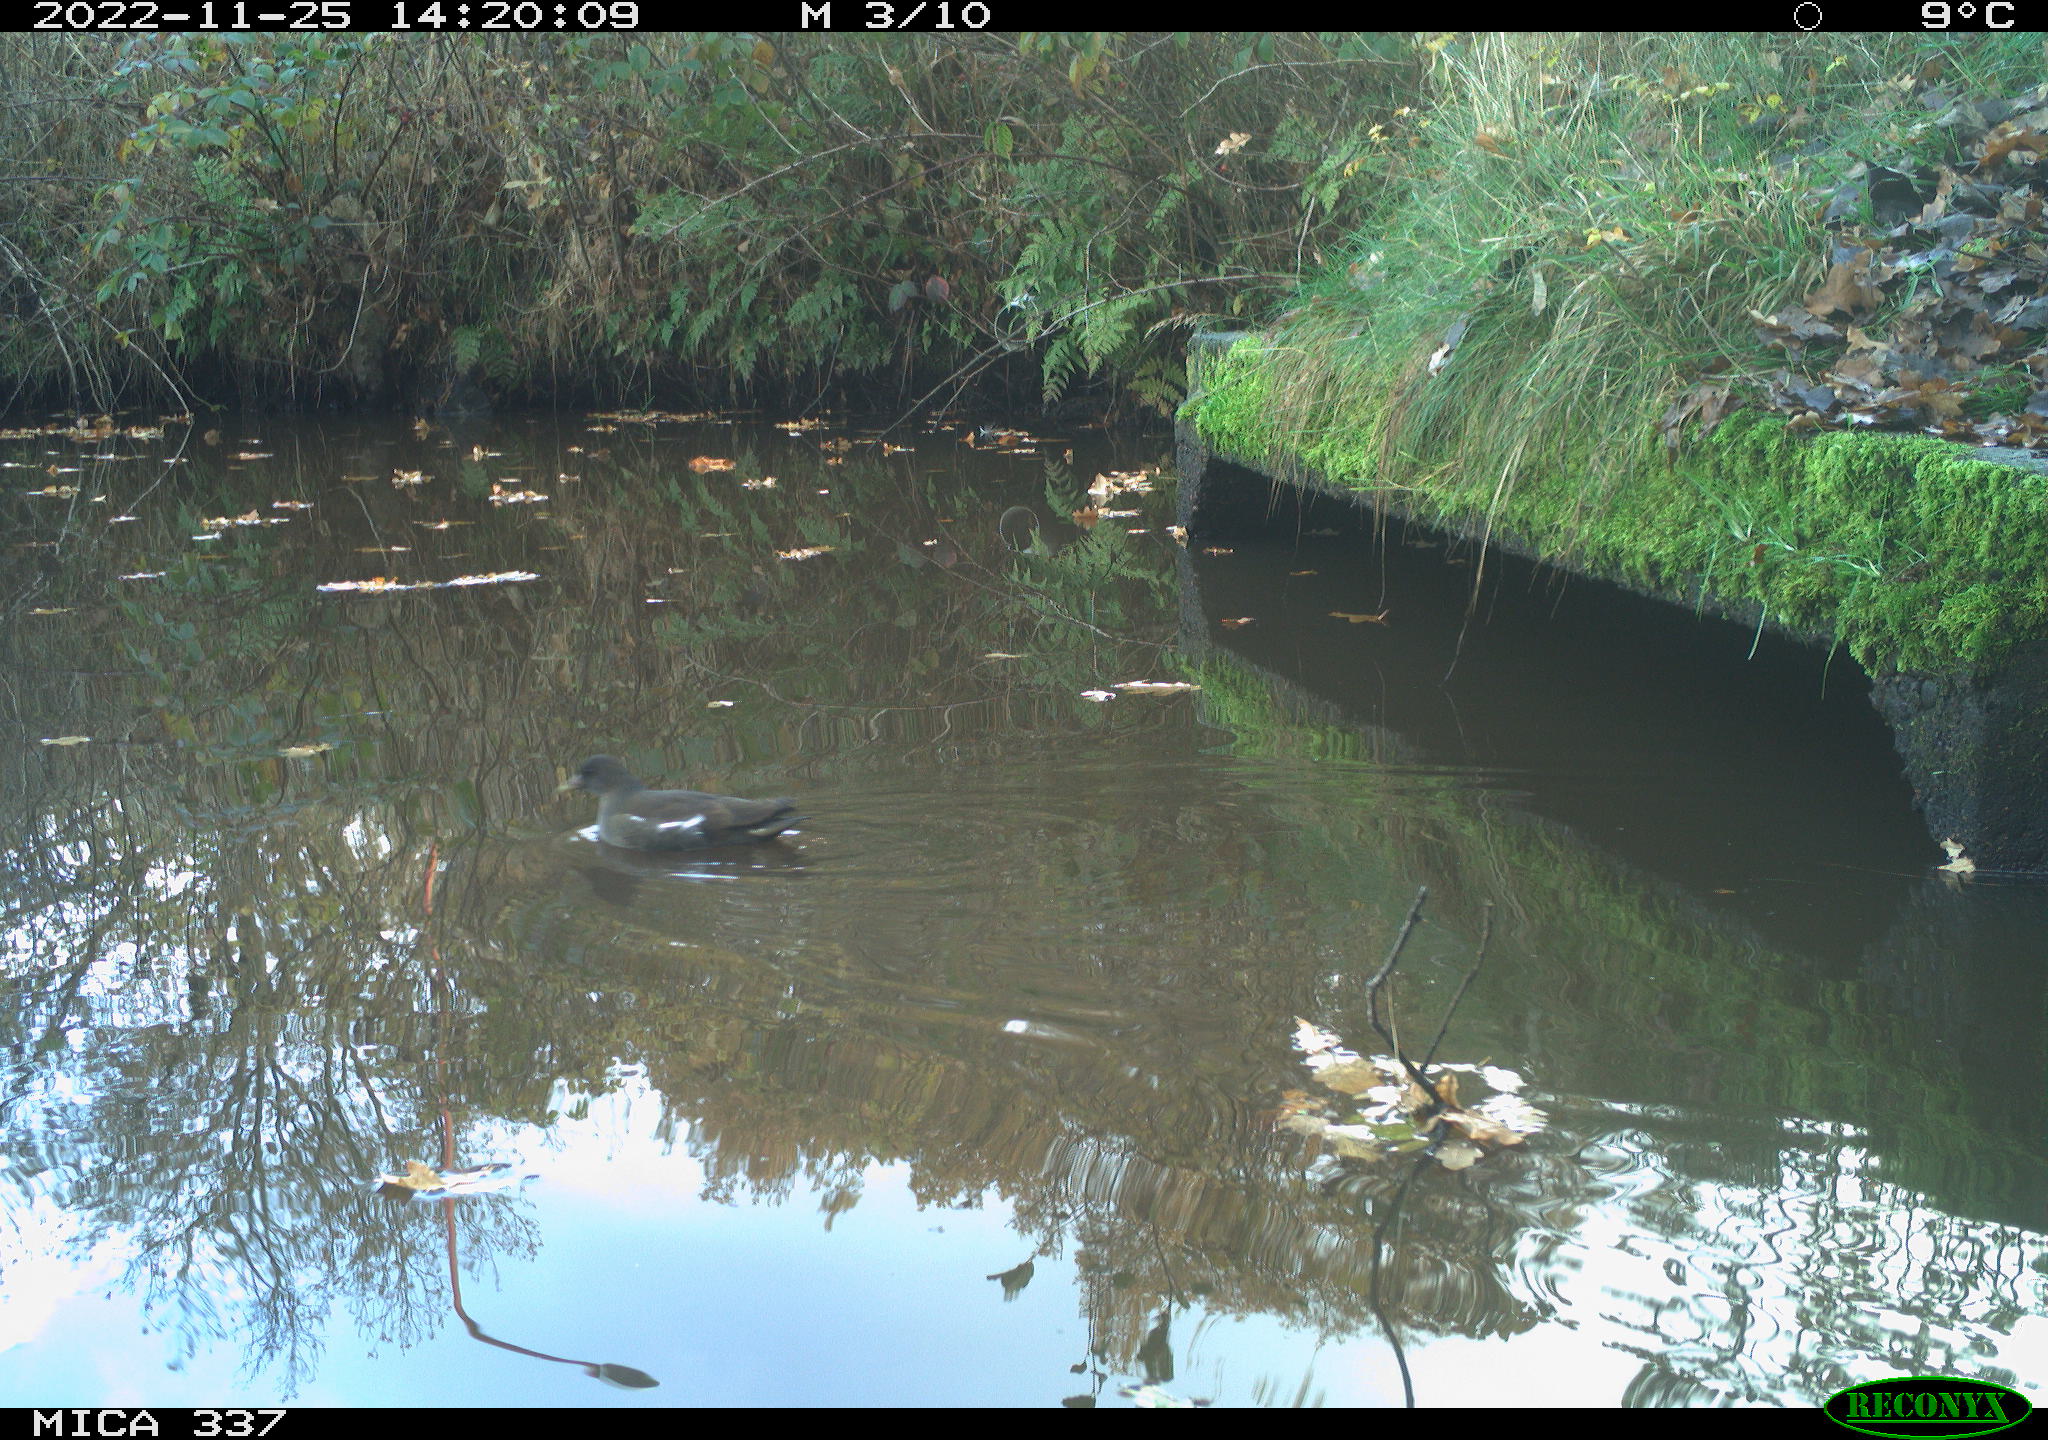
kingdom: Animalia
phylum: Chordata
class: Aves
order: Anseriformes
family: Anatidae
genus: Anas
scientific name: Anas
